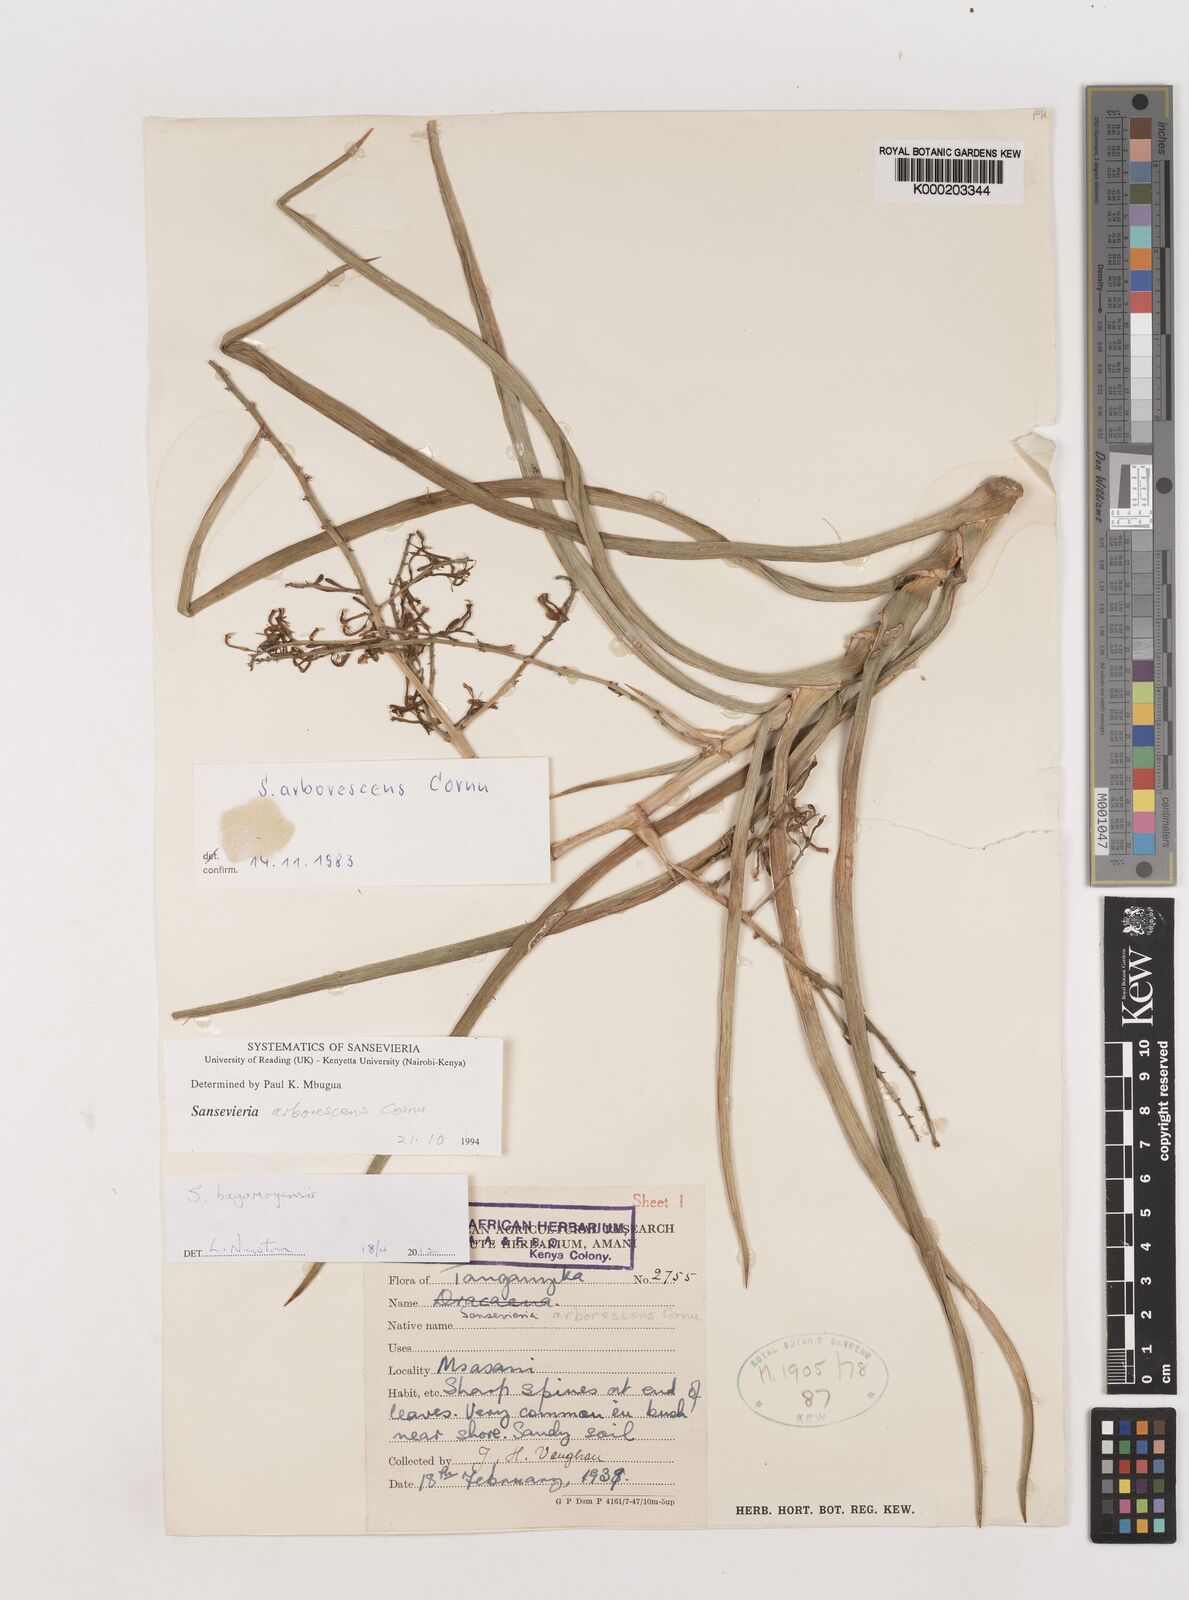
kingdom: Plantae
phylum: Tracheophyta
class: Liliopsida
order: Asparagales
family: Asparagaceae
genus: Dracaena
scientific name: Dracaena
